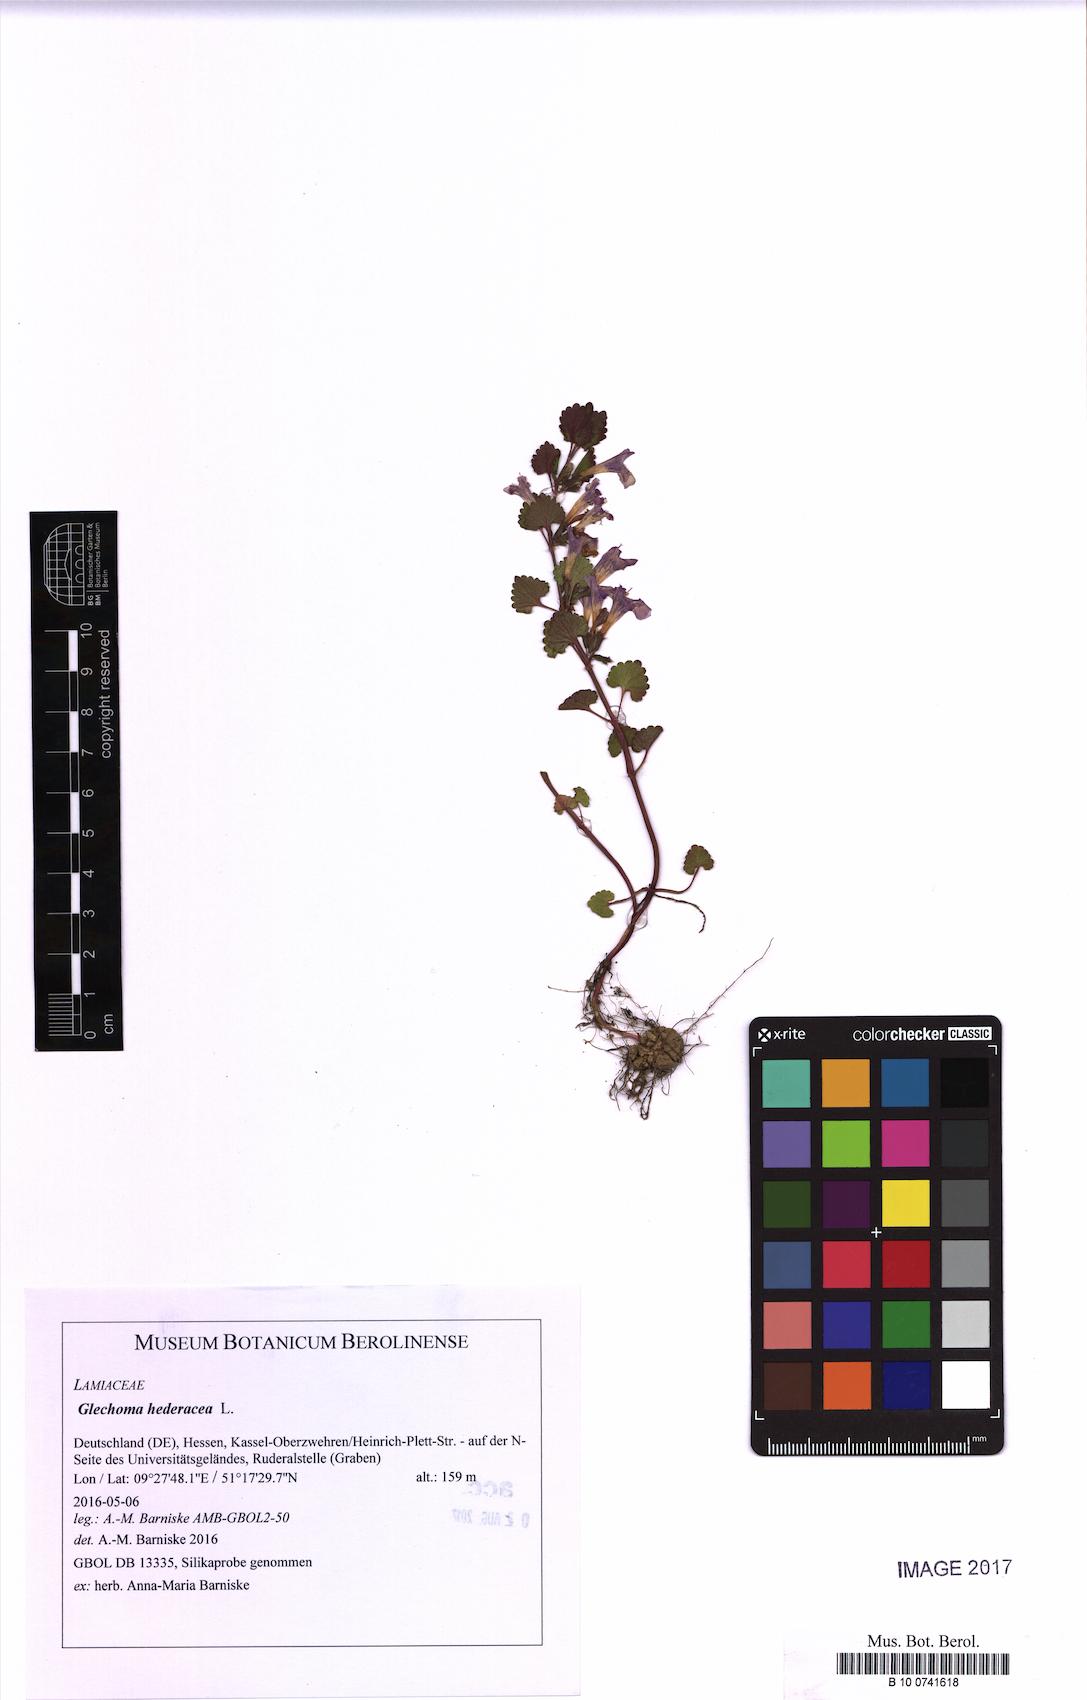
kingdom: Plantae
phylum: Tracheophyta
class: Magnoliopsida
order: Lamiales
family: Lamiaceae
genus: Glechoma
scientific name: Glechoma hederacea
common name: Ground ivy
